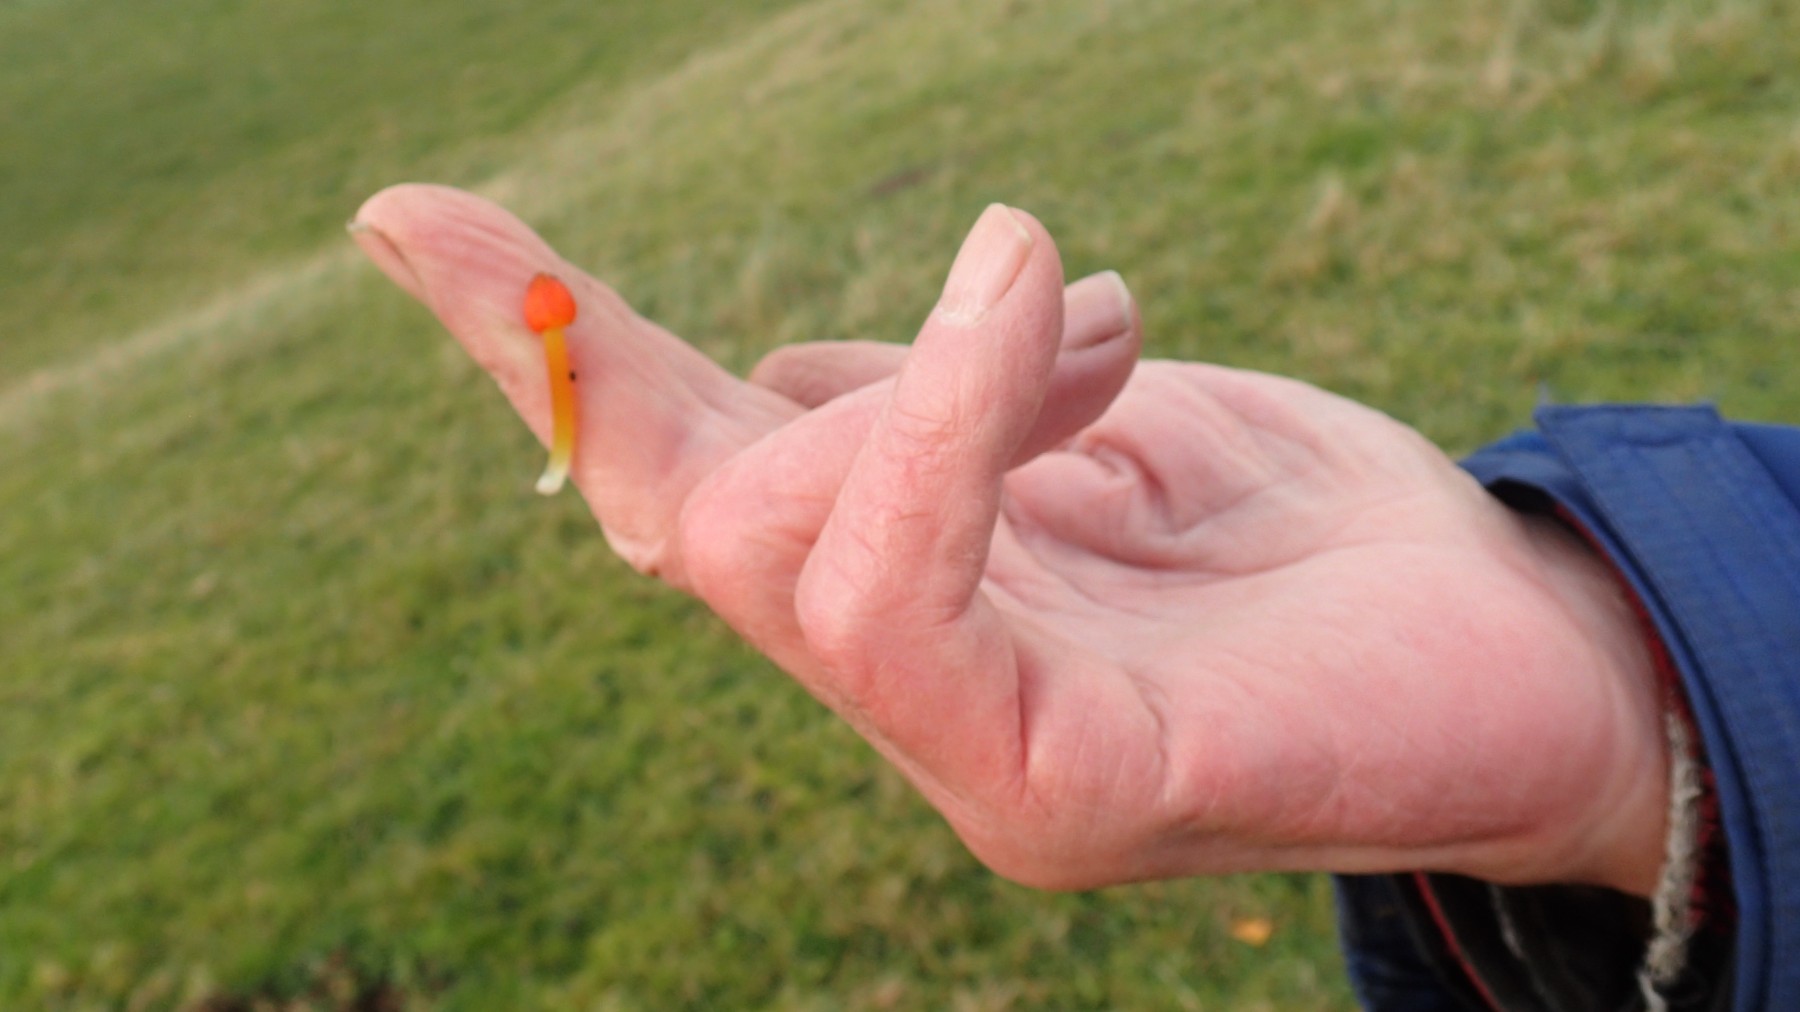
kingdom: Fungi
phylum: Basidiomycota
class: Agaricomycetes
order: Agaricales
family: Hygrophoraceae
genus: Hygrocybe
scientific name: Hygrocybe conica
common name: kegle-vokshat
